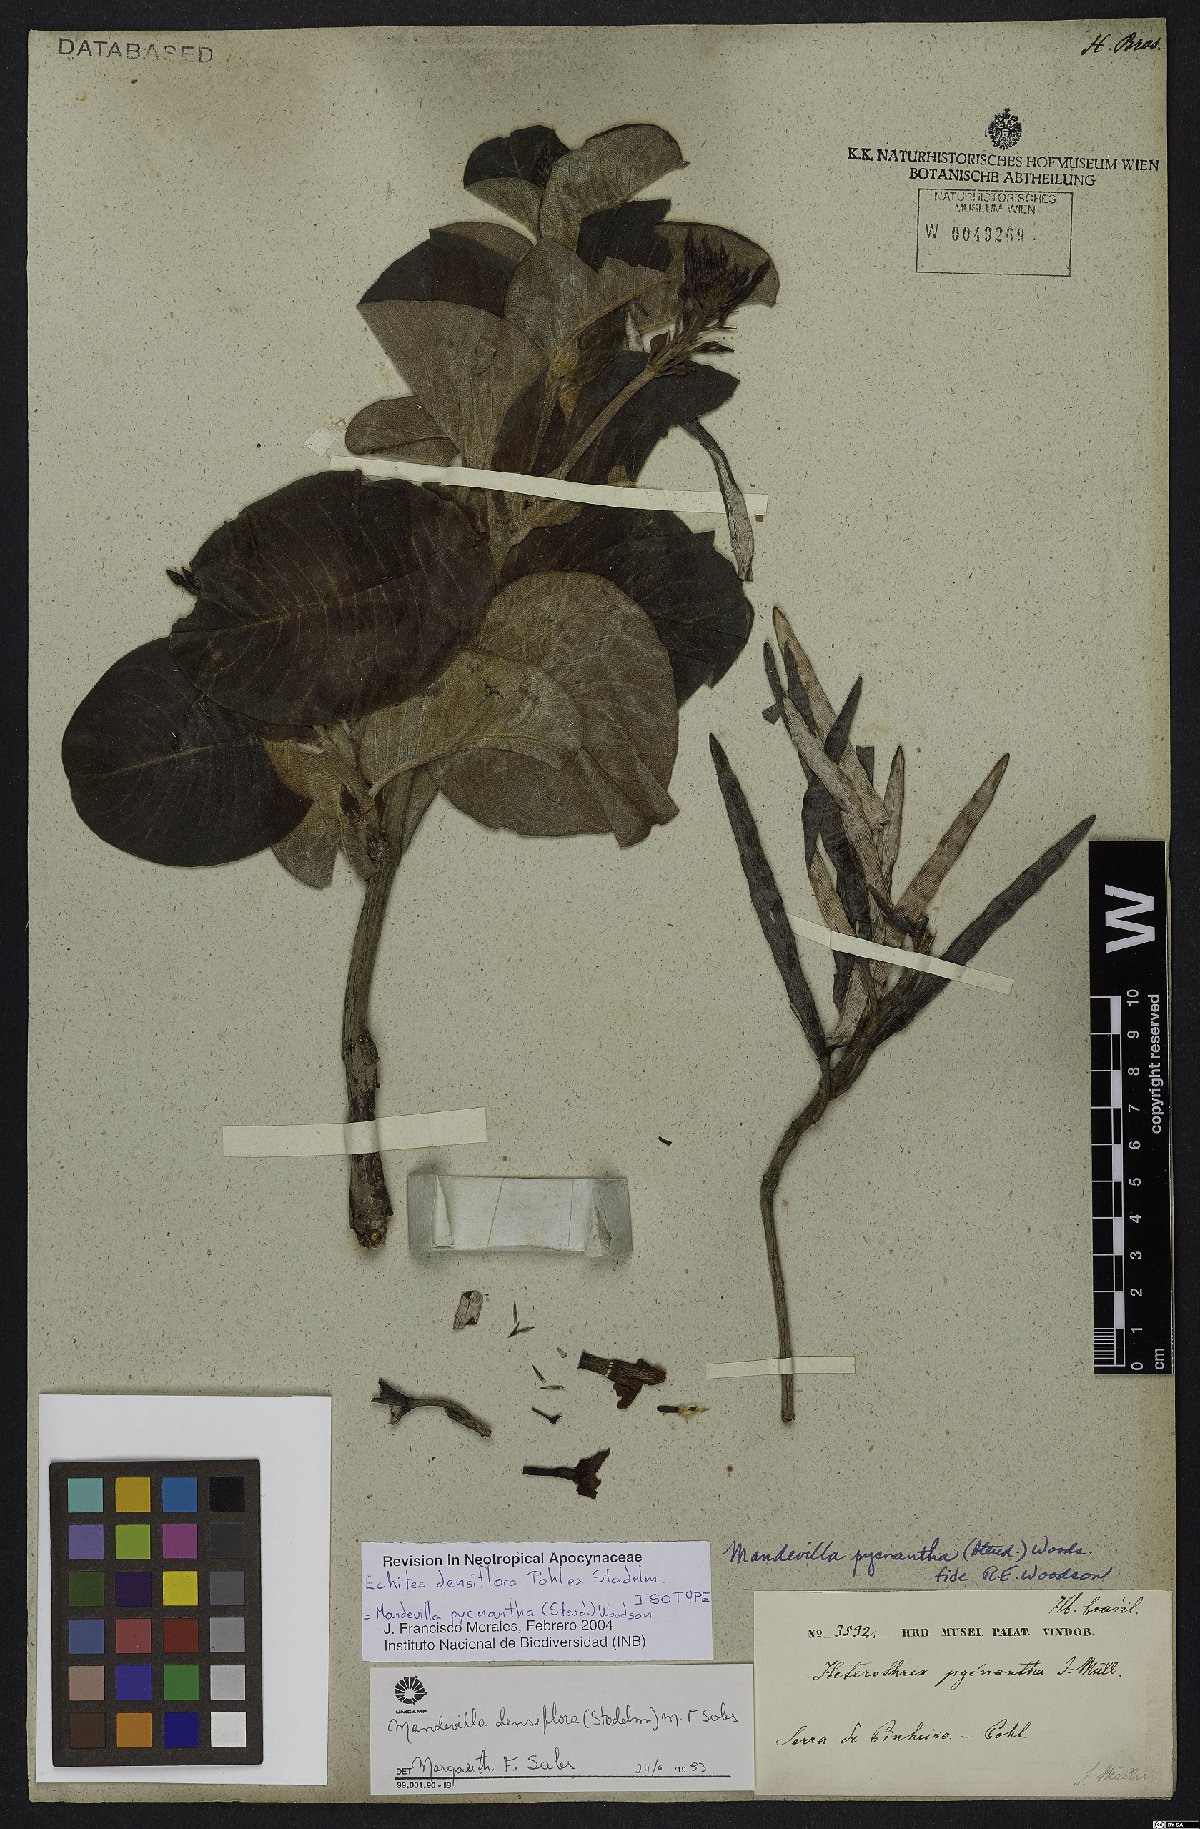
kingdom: Plantae
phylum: Tracheophyta
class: Magnoliopsida
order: Gentianales
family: Apocynaceae
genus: Mandevilla
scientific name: Mandevilla pycnantha
